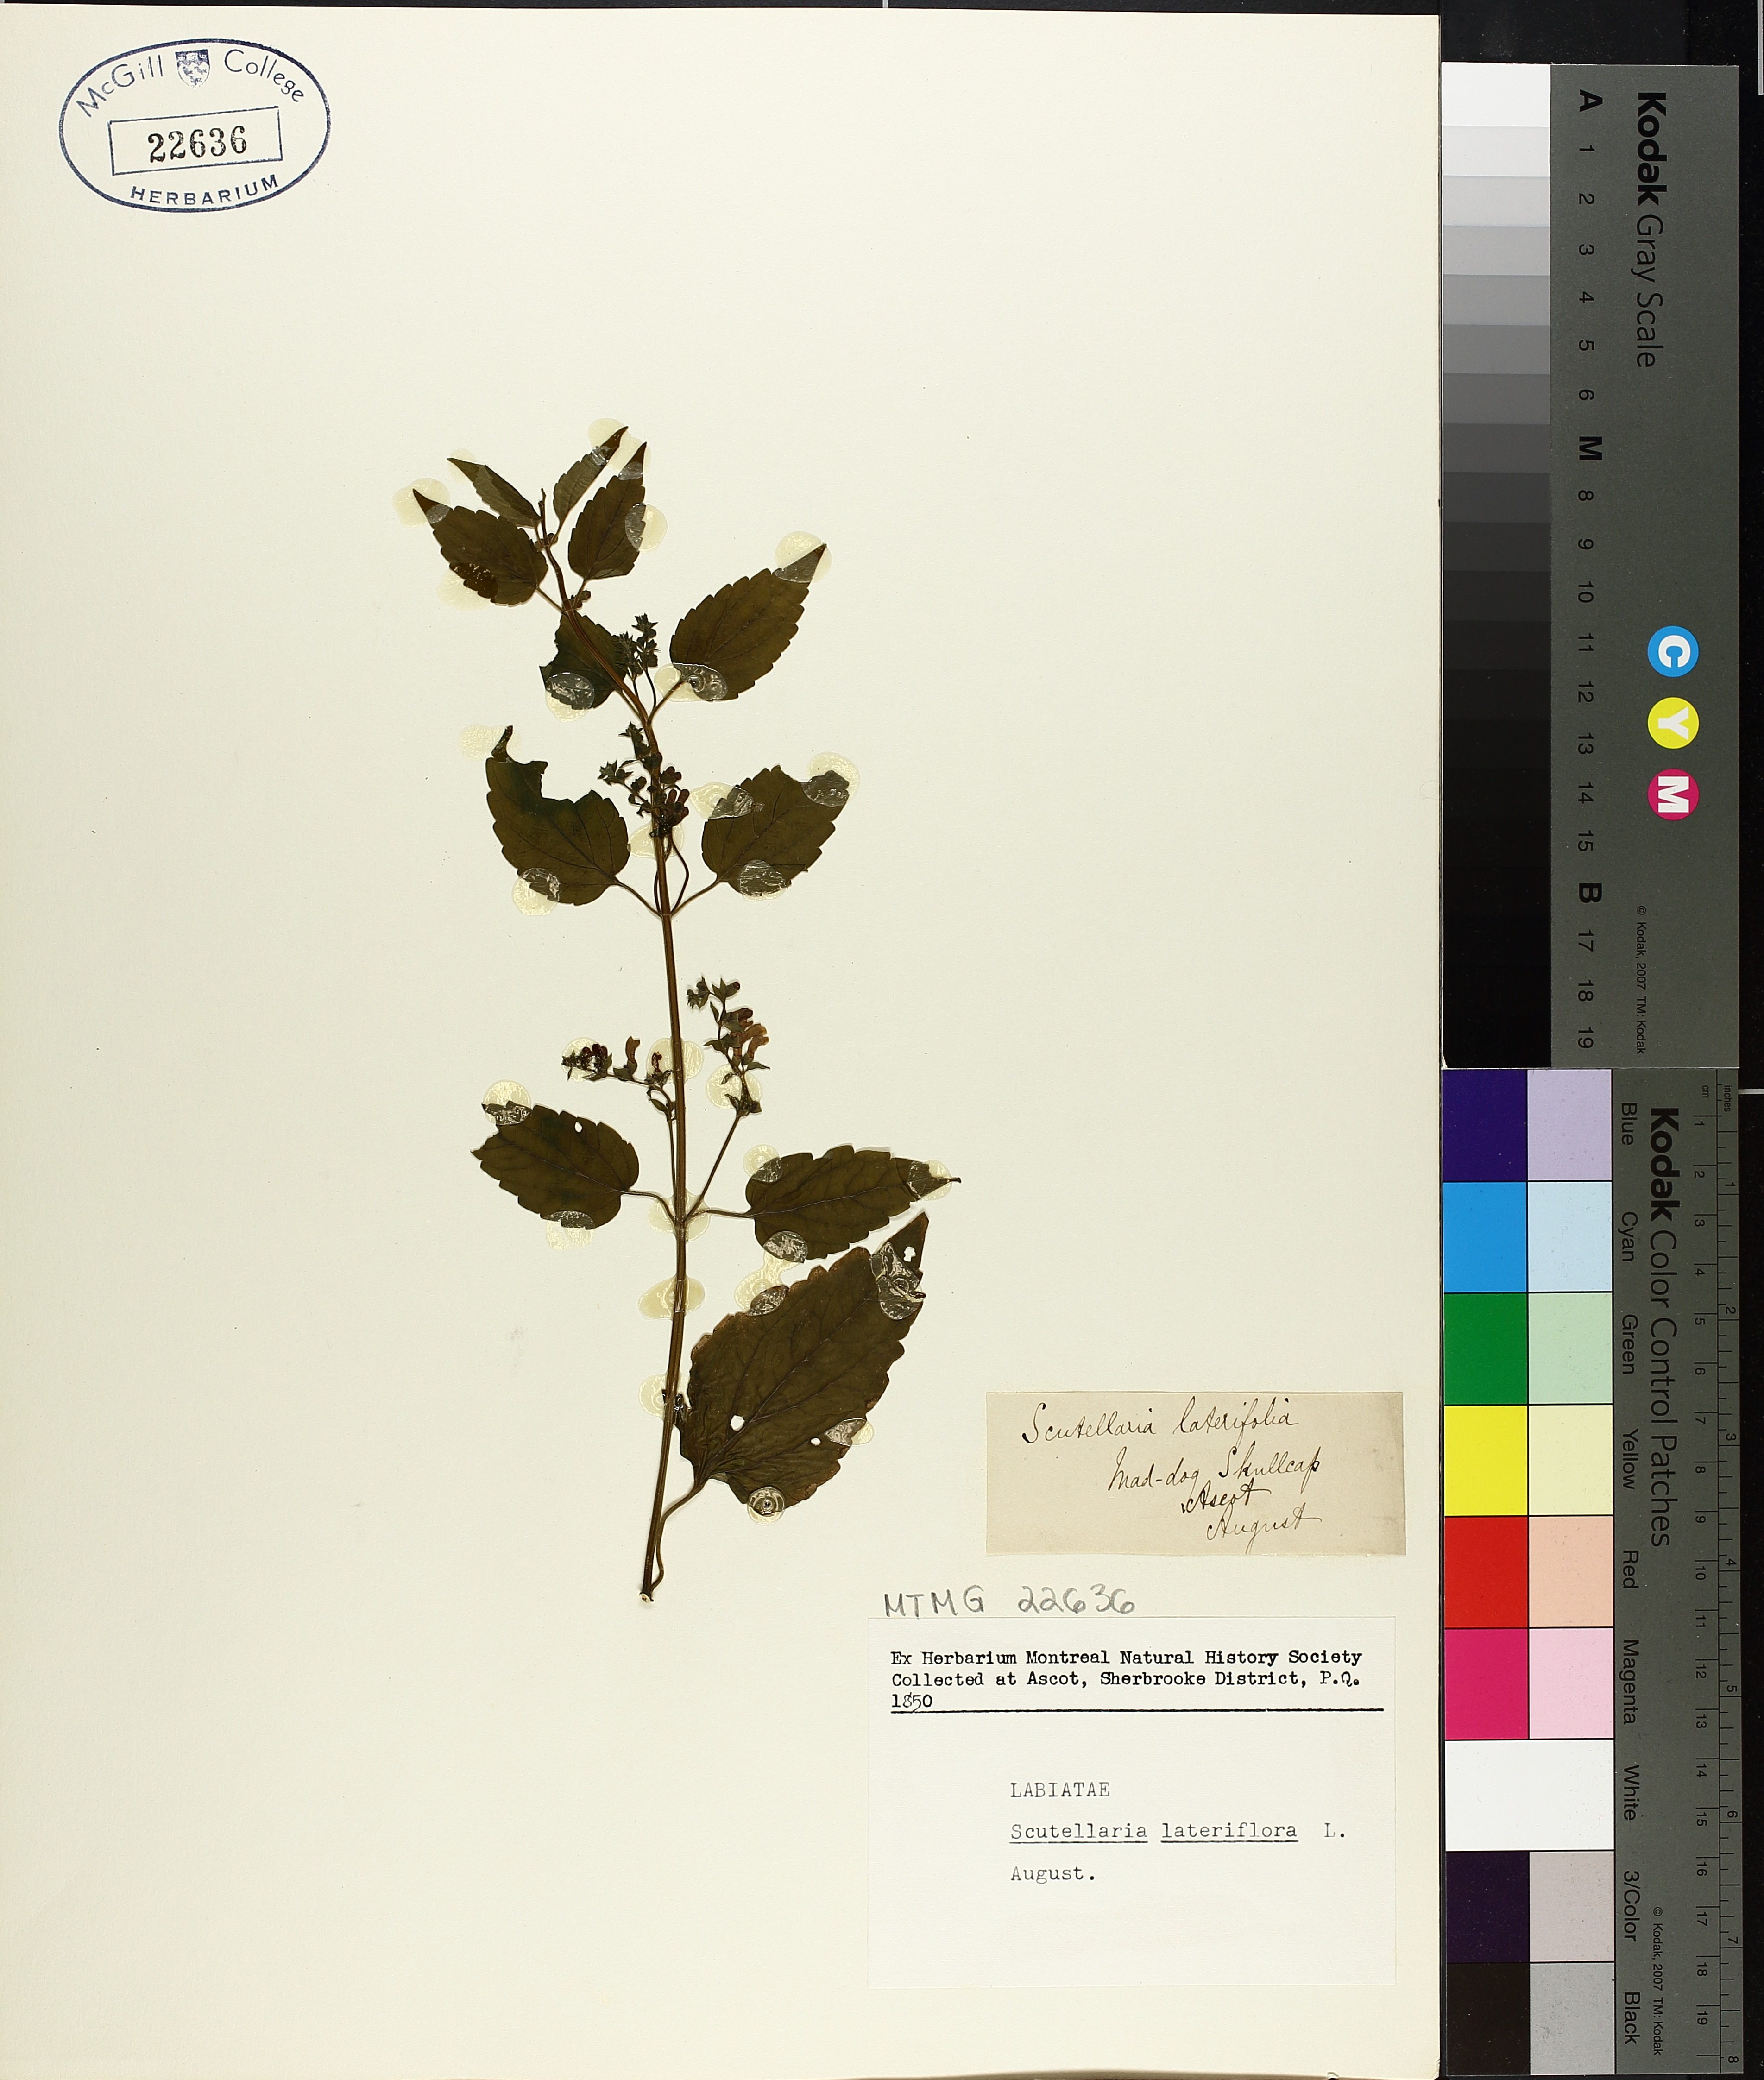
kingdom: Plantae
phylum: Tracheophyta
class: Magnoliopsida
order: Lamiales
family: Lamiaceae
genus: Scutellaria
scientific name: Scutellaria lateriflora
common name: Blue skullcap
